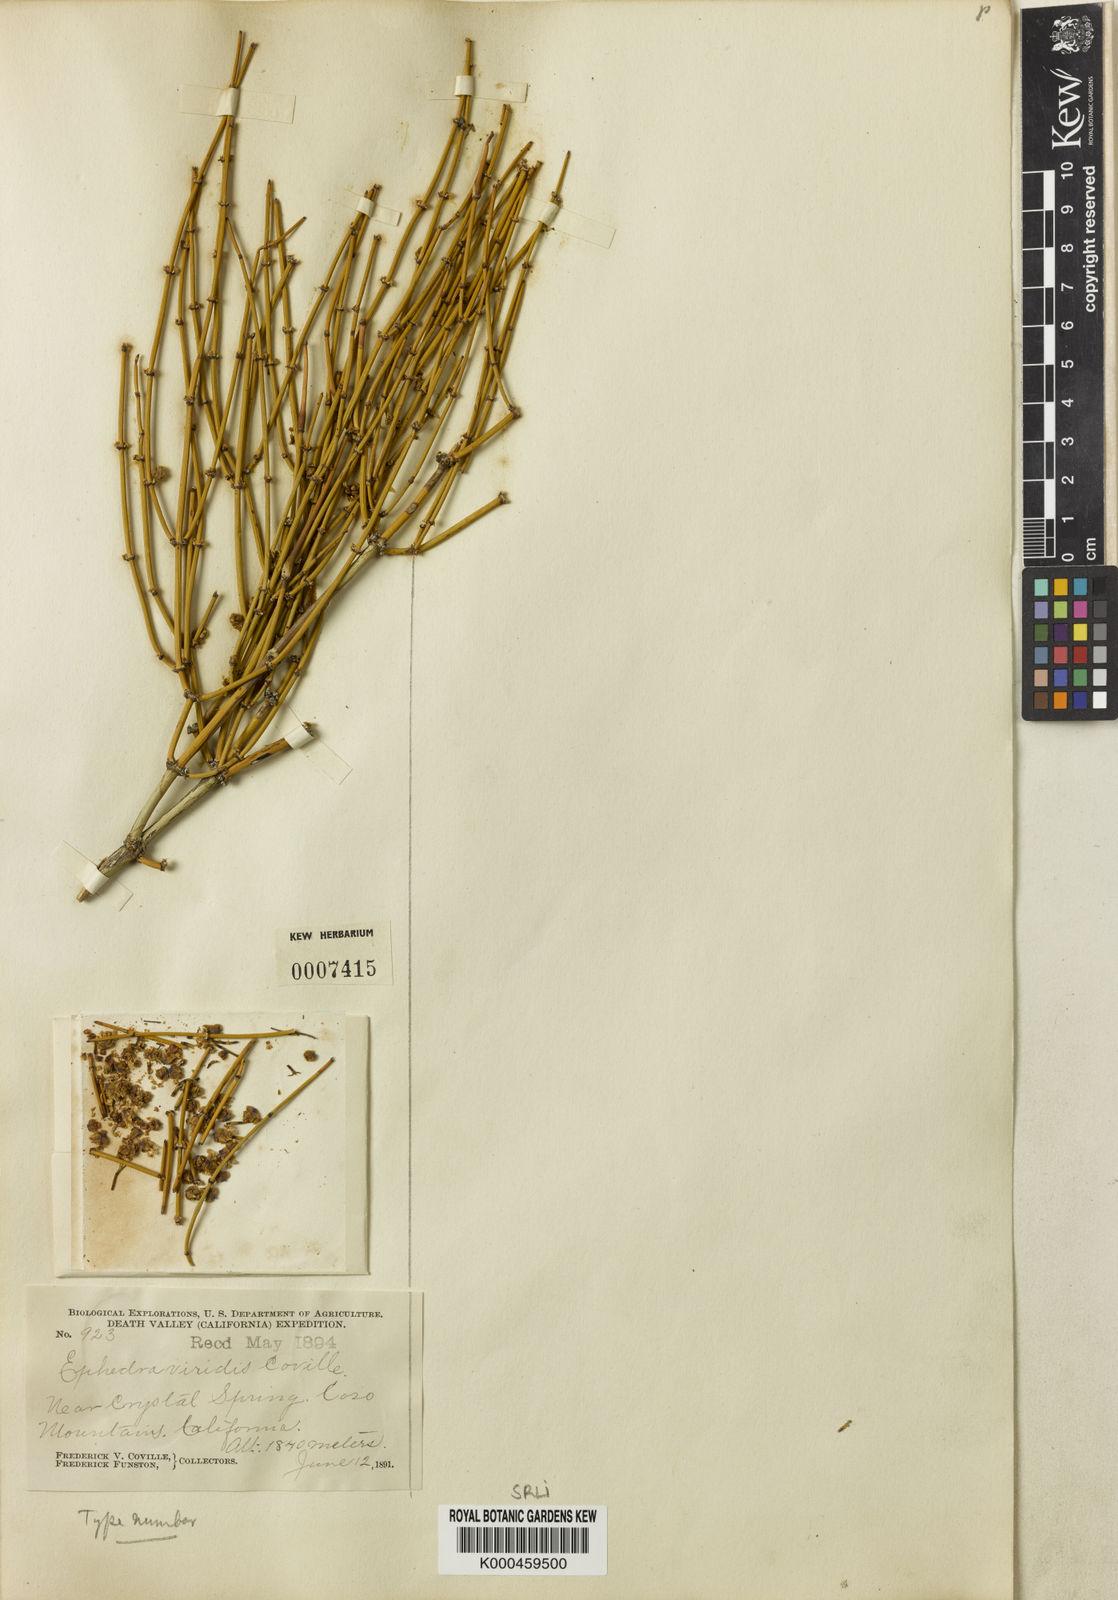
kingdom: Plantae
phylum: Tracheophyta
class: Gnetopsida
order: Ephedrales
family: Ephedraceae
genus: Ephedra
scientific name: Ephedra nevadensis
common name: Gray ephedra
